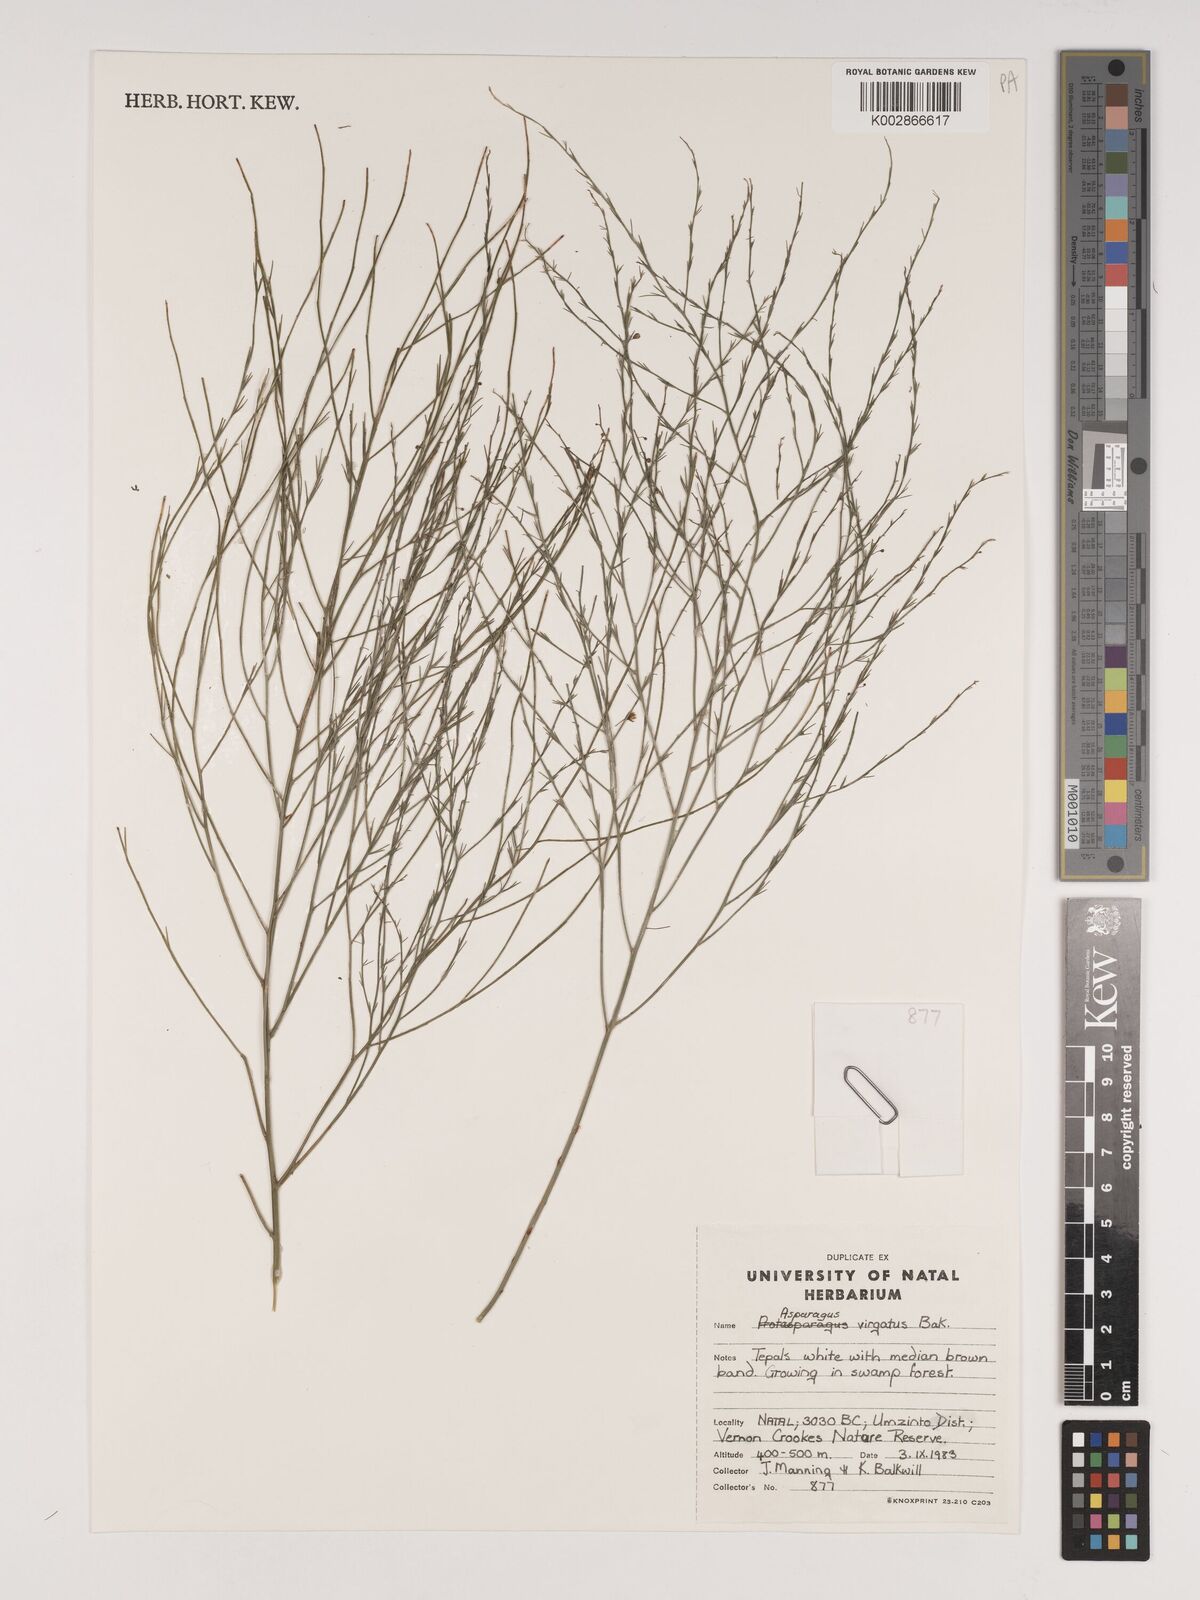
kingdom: Plantae
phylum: Tracheophyta
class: Liliopsida
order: Asparagales
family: Asparagaceae
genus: Asparagus
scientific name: Asparagus virgatus
